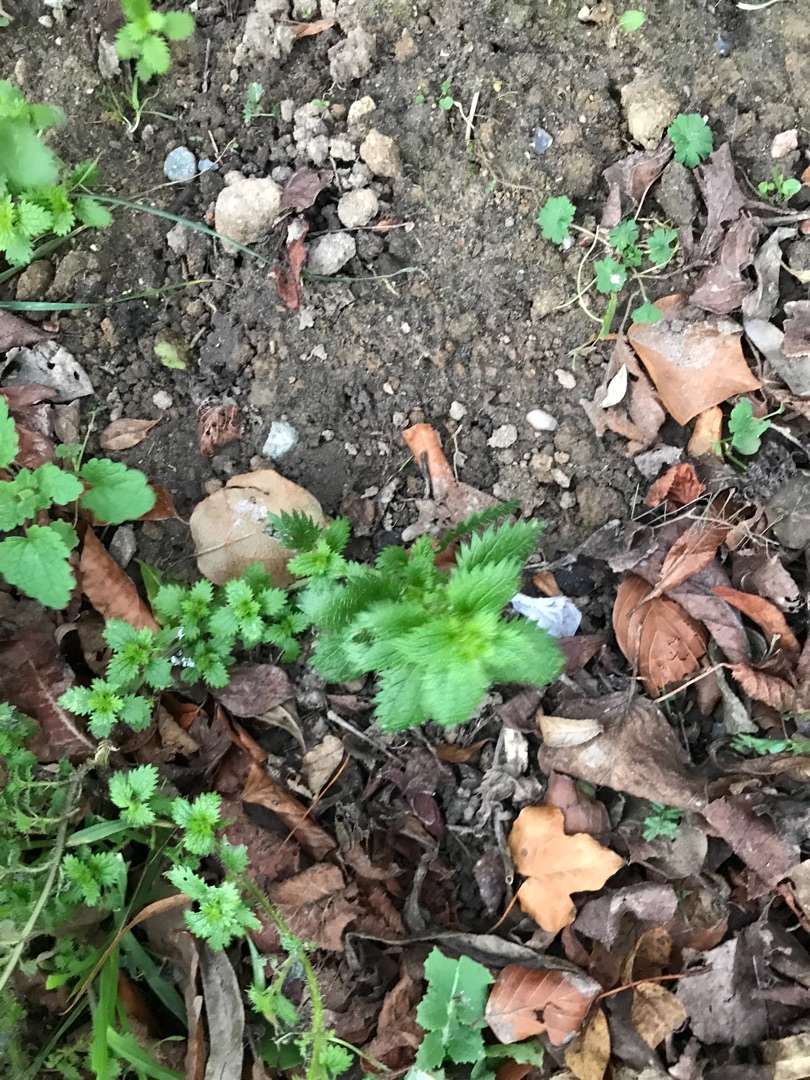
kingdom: Plantae
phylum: Tracheophyta
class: Magnoliopsida
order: Rosales
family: Urticaceae
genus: Urtica
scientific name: Urtica urens
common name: Liden nælde
